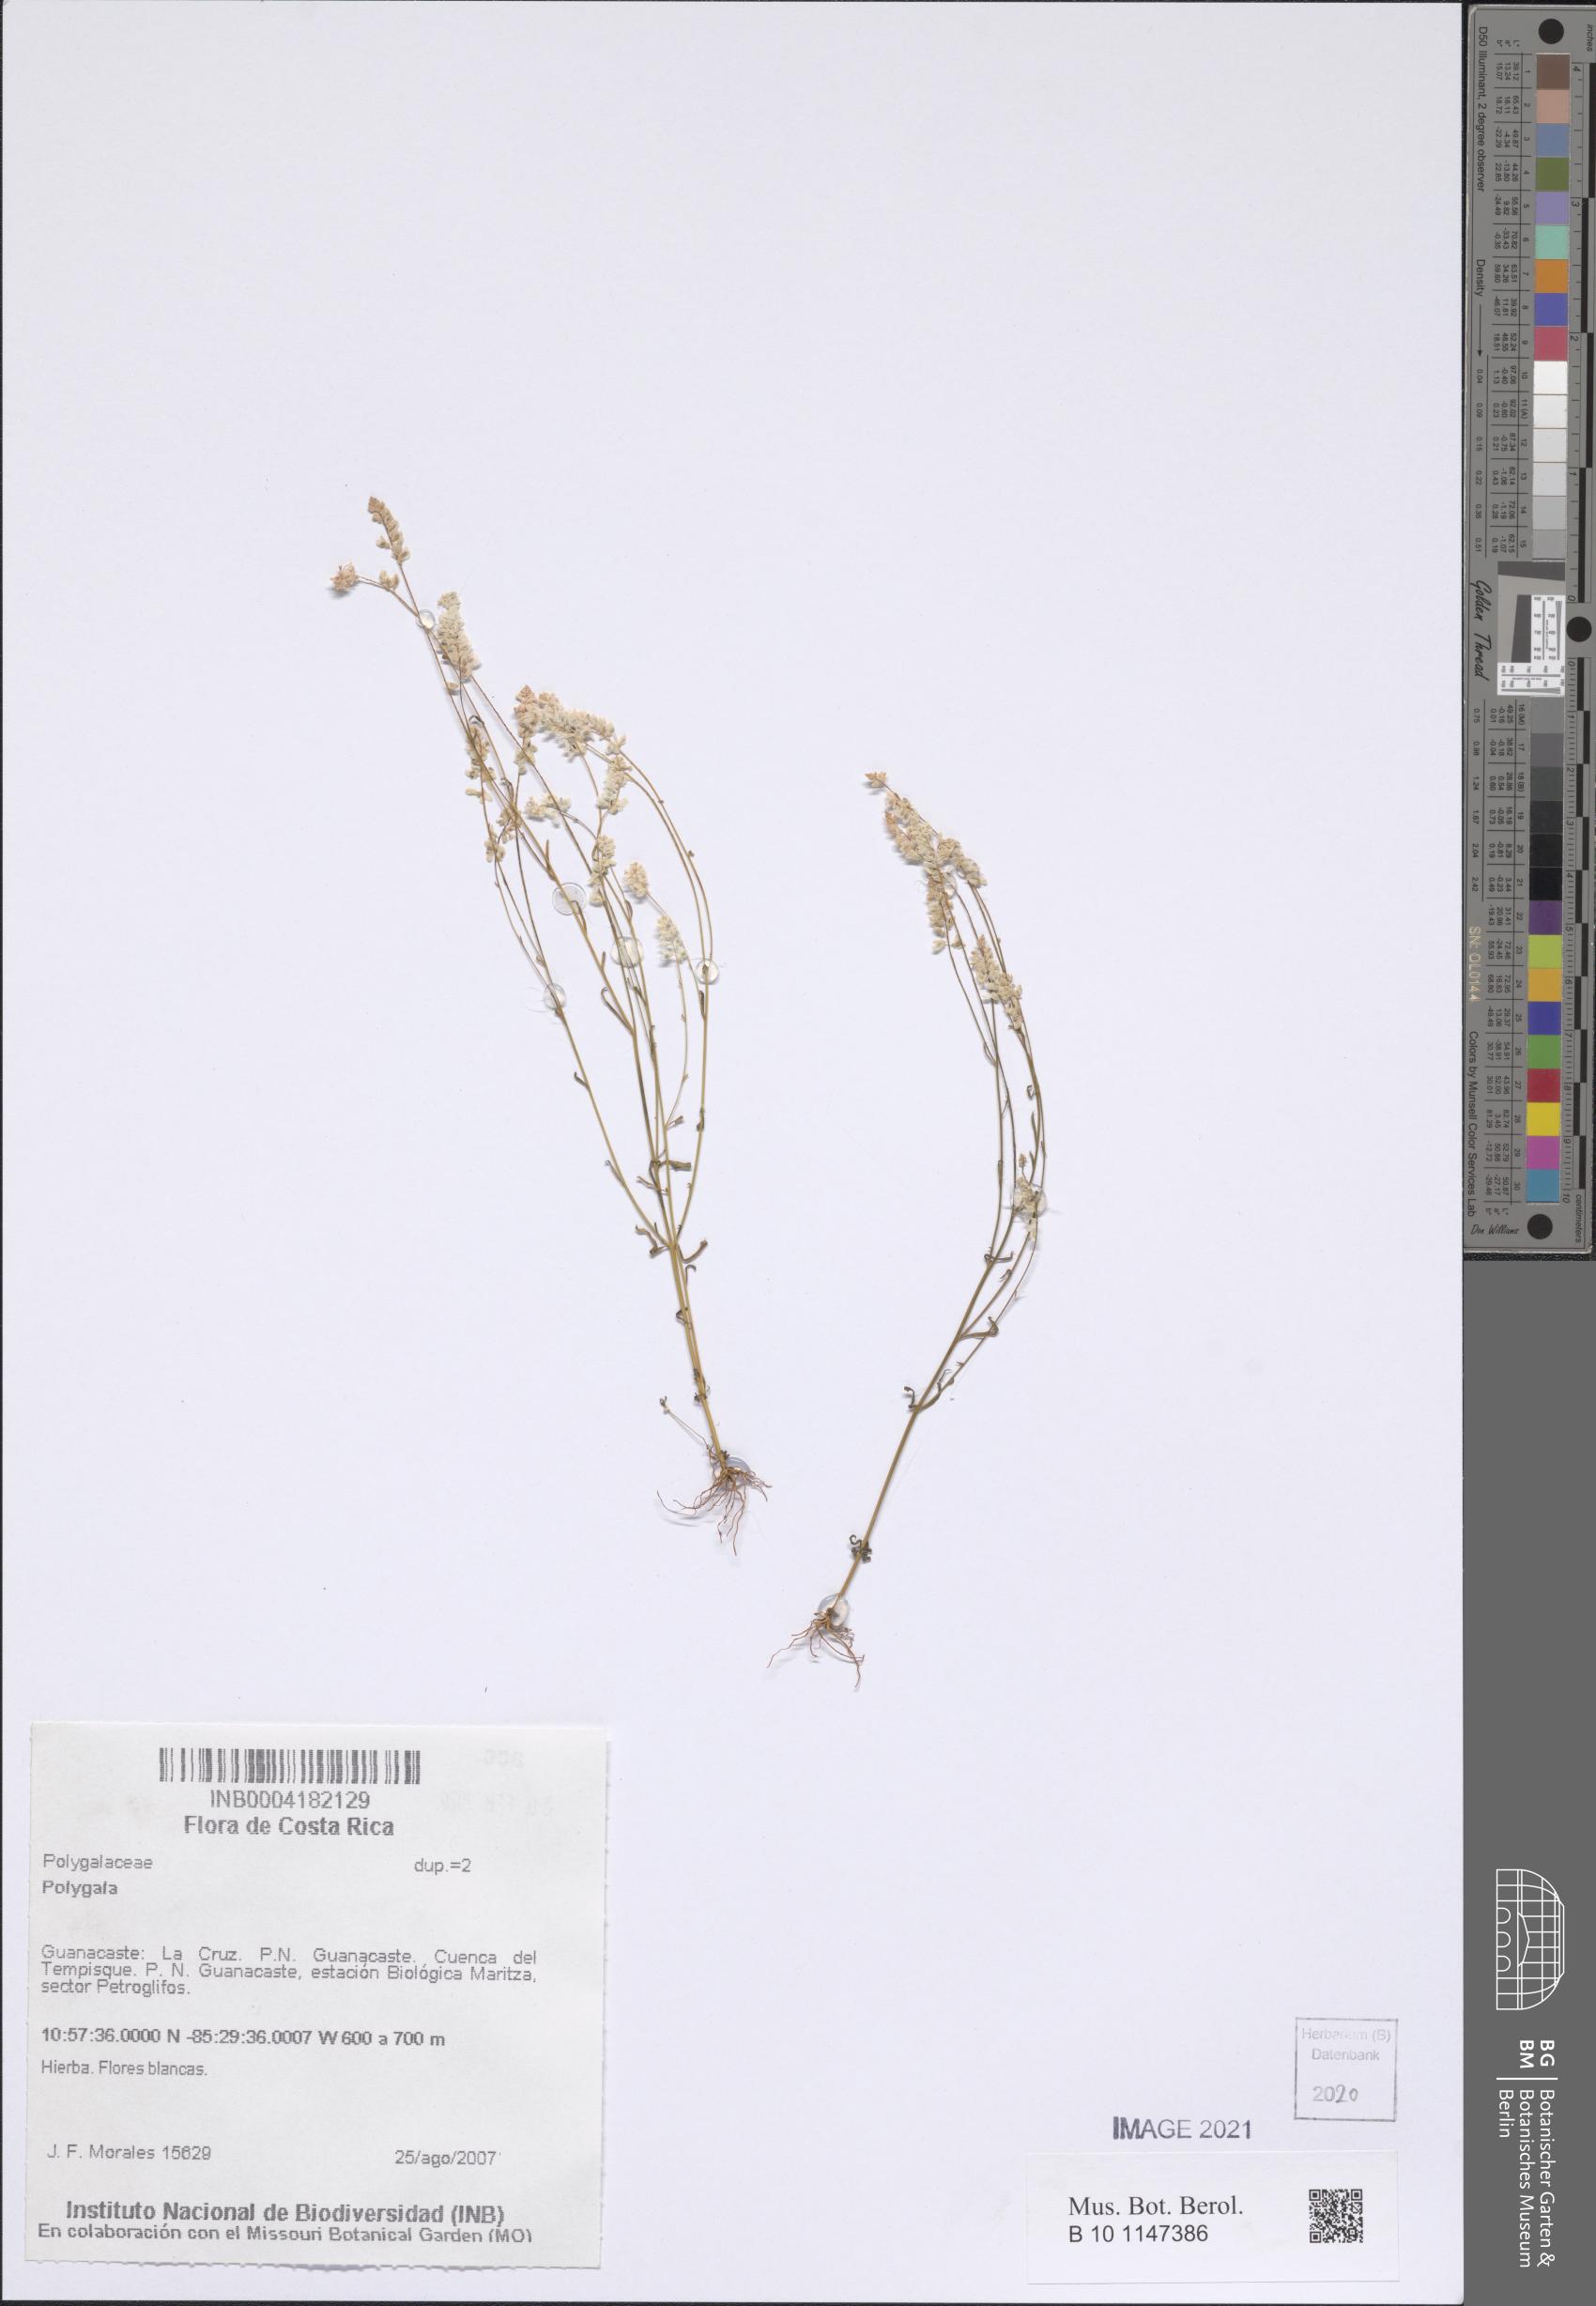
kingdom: Plantae
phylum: Tracheophyta
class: Magnoliopsida
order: Fabales
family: Polygalaceae
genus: Polygala
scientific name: Polygala
